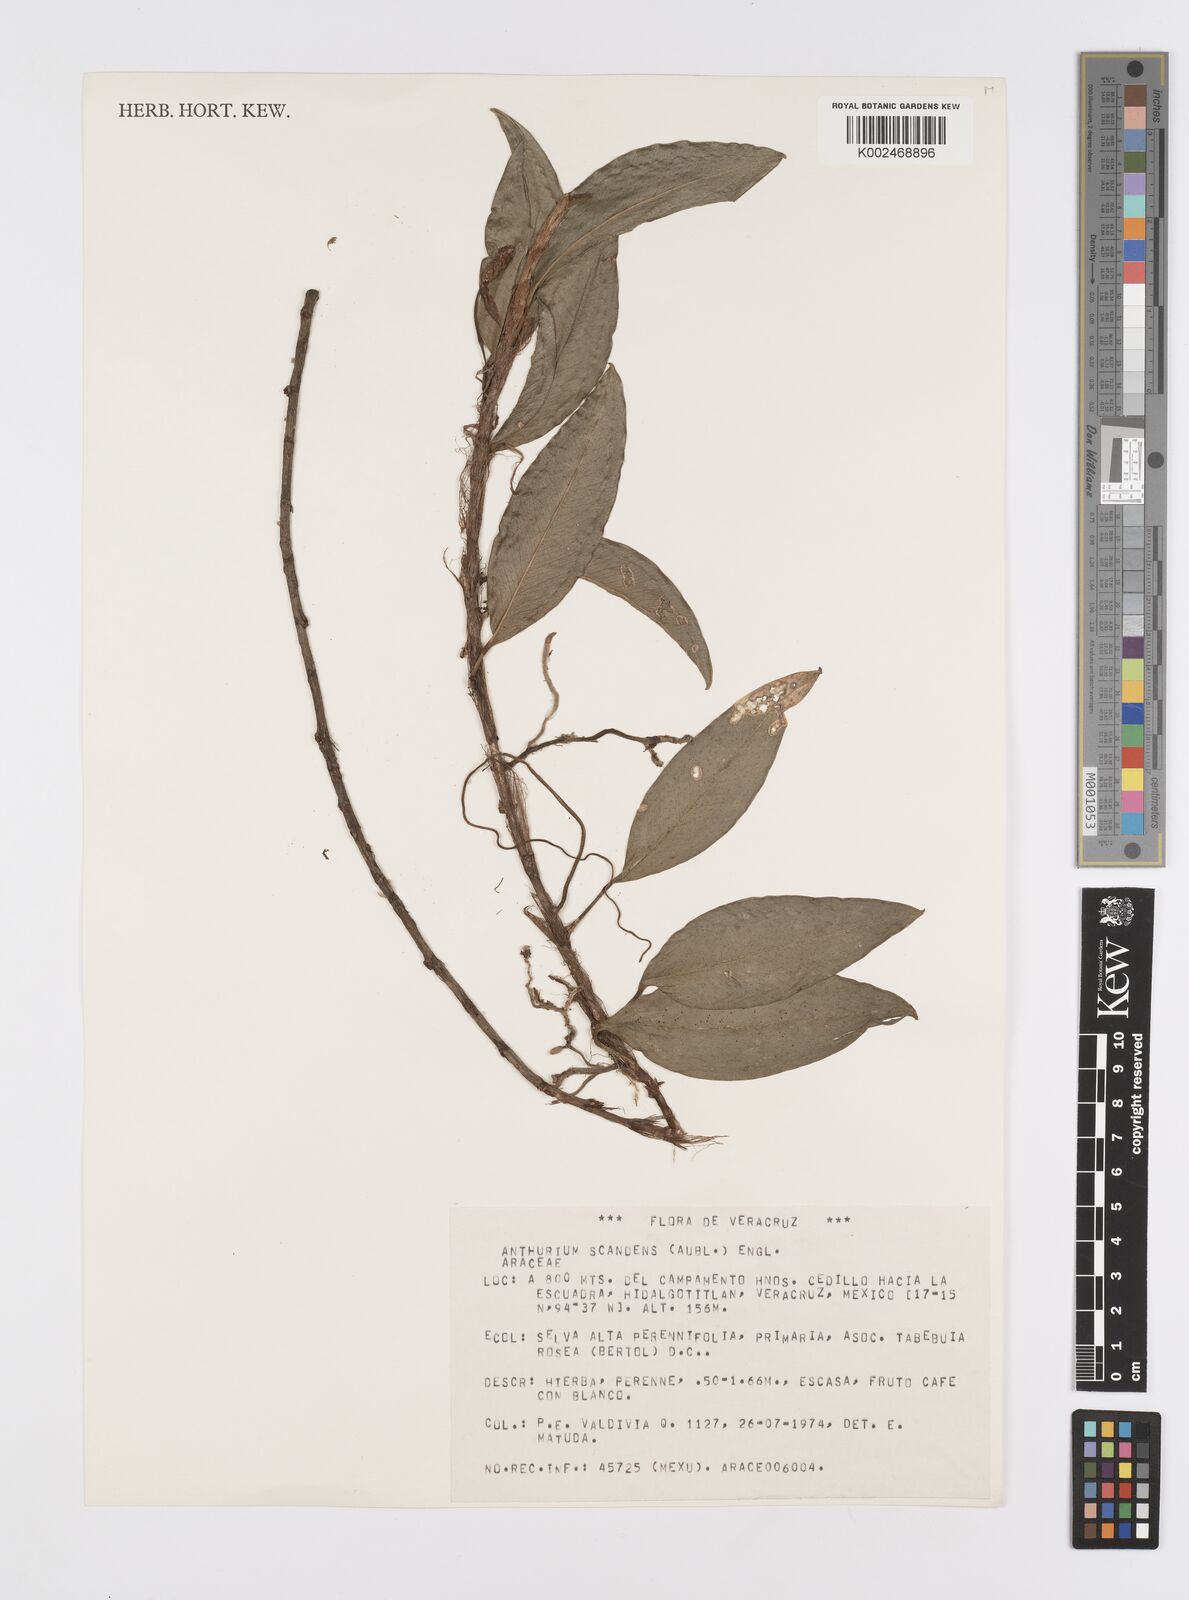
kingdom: Plantae
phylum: Tracheophyta
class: Liliopsida
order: Alismatales
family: Araceae
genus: Anthurium
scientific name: Anthurium scandens
